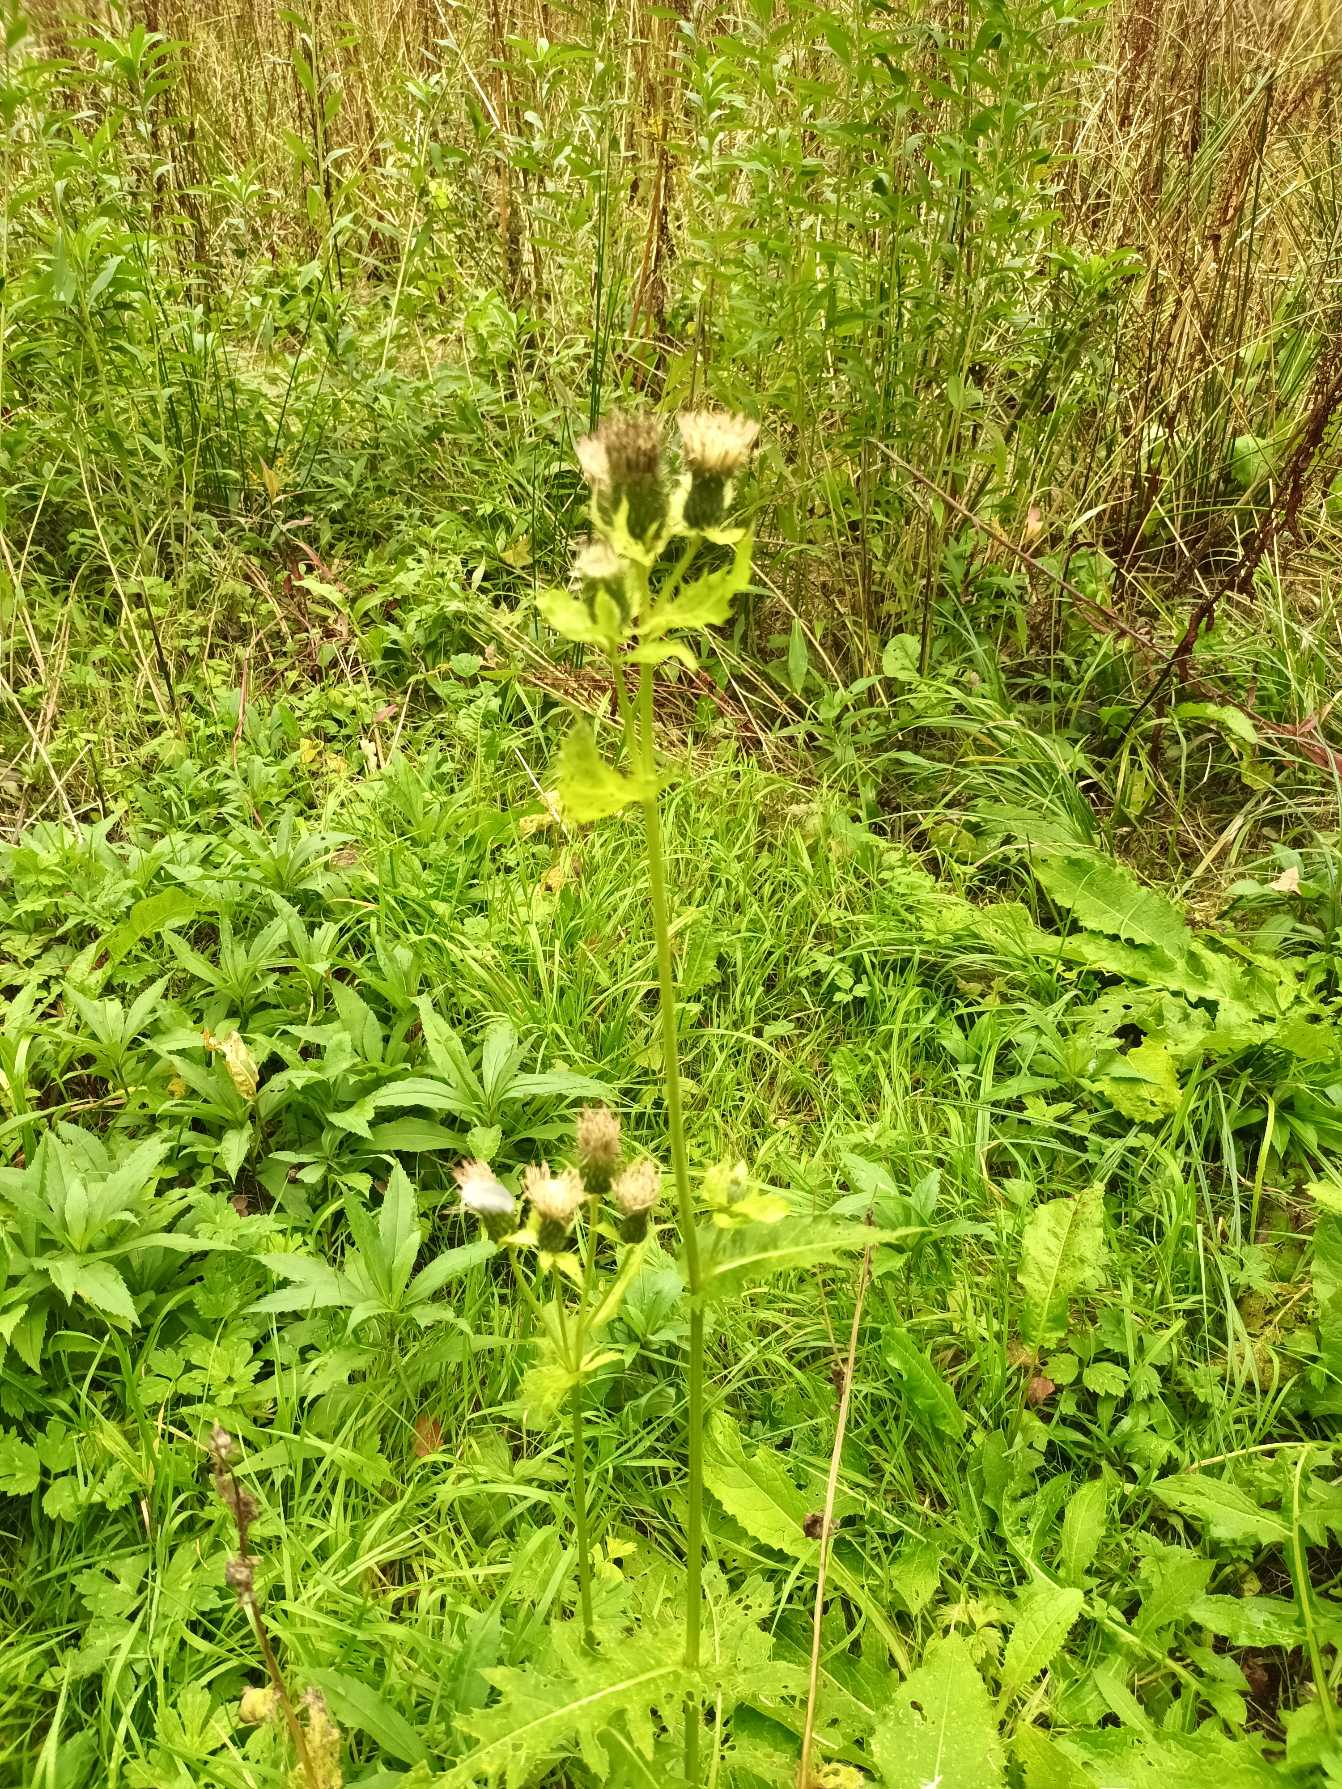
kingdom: Plantae
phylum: Tracheophyta
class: Magnoliopsida
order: Asterales
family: Asteraceae
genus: Cirsium
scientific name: Cirsium oleraceum
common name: Kål-tidsel
